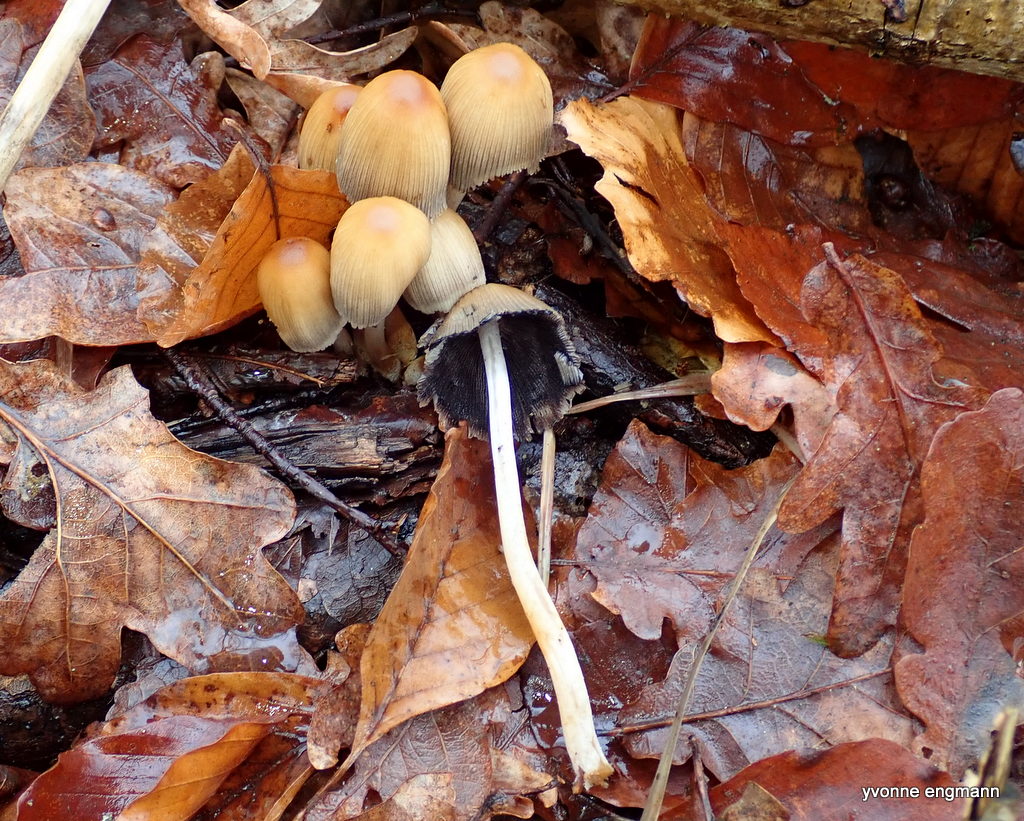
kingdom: Fungi
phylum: Basidiomycota
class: Agaricomycetes
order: Agaricales
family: Psathyrellaceae
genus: Coprinellus
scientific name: Coprinellus micaceus
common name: glimmer-blækhat
